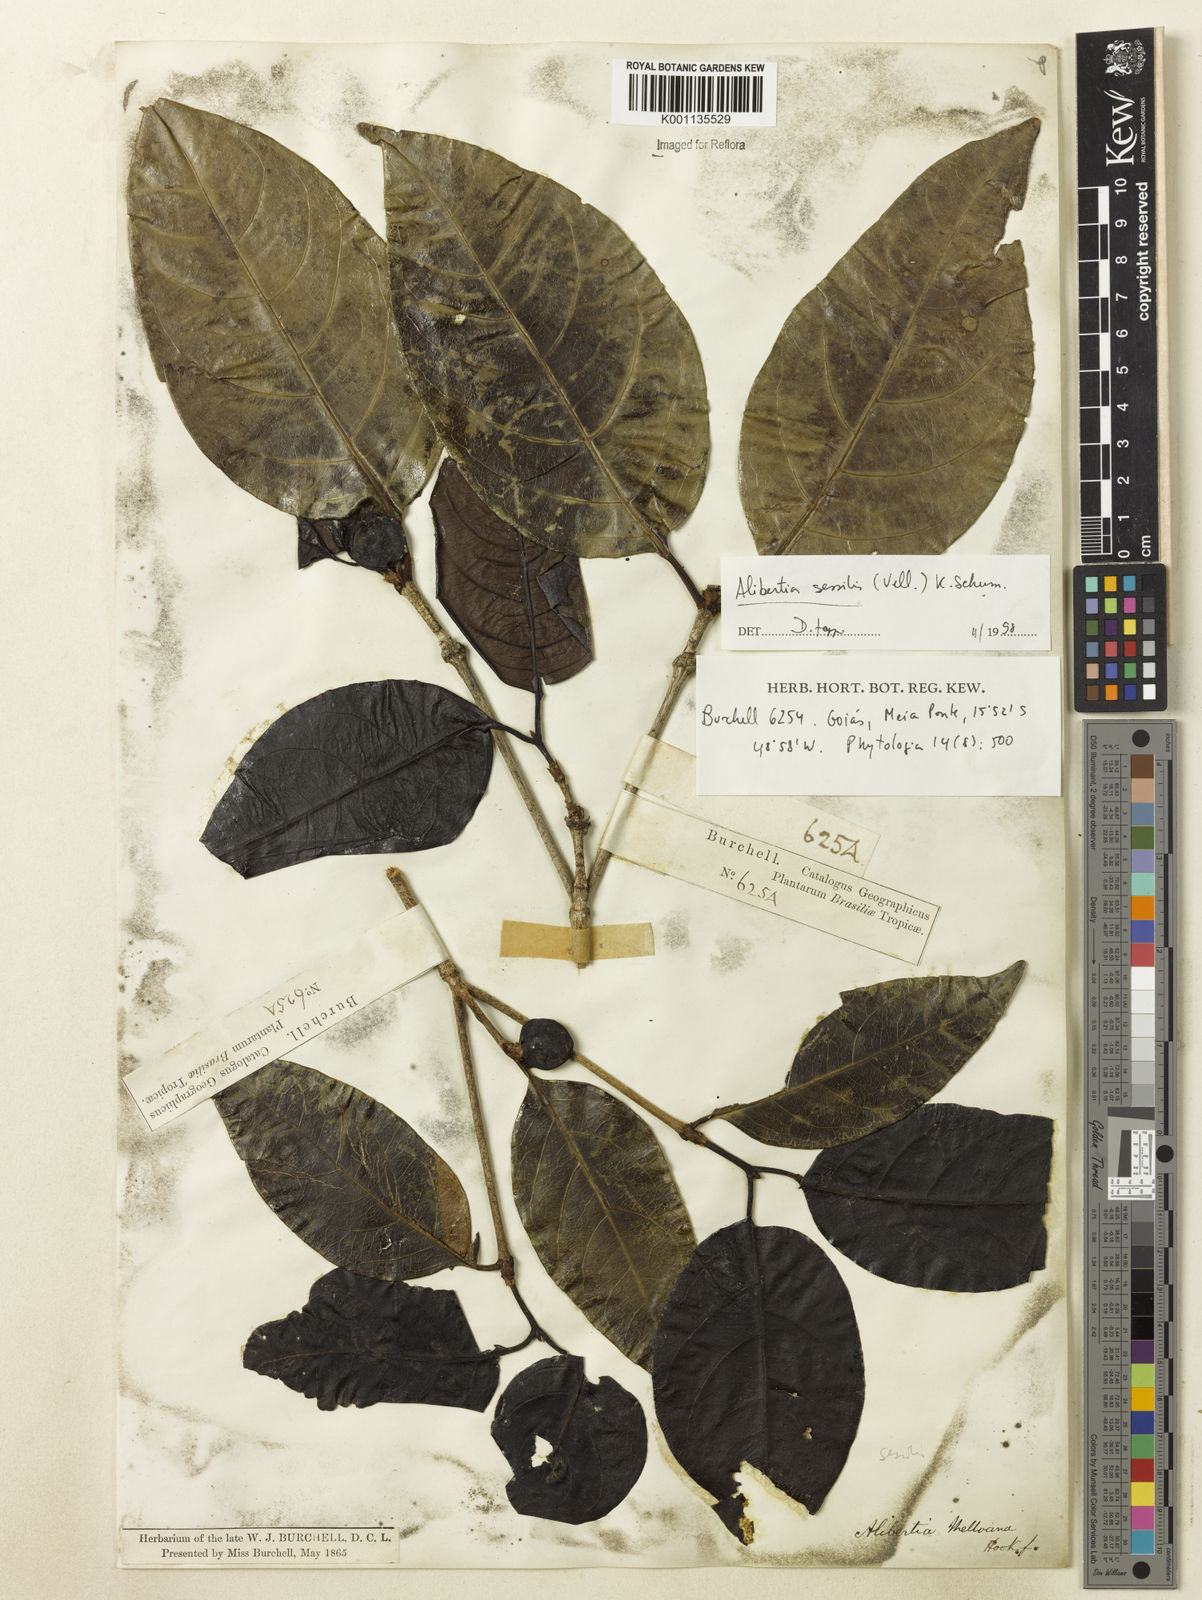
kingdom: Plantae
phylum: Tracheophyta
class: Magnoliopsida
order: Gentianales
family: Rubiaceae
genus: Cordiera
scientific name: Cordiera sessilis
